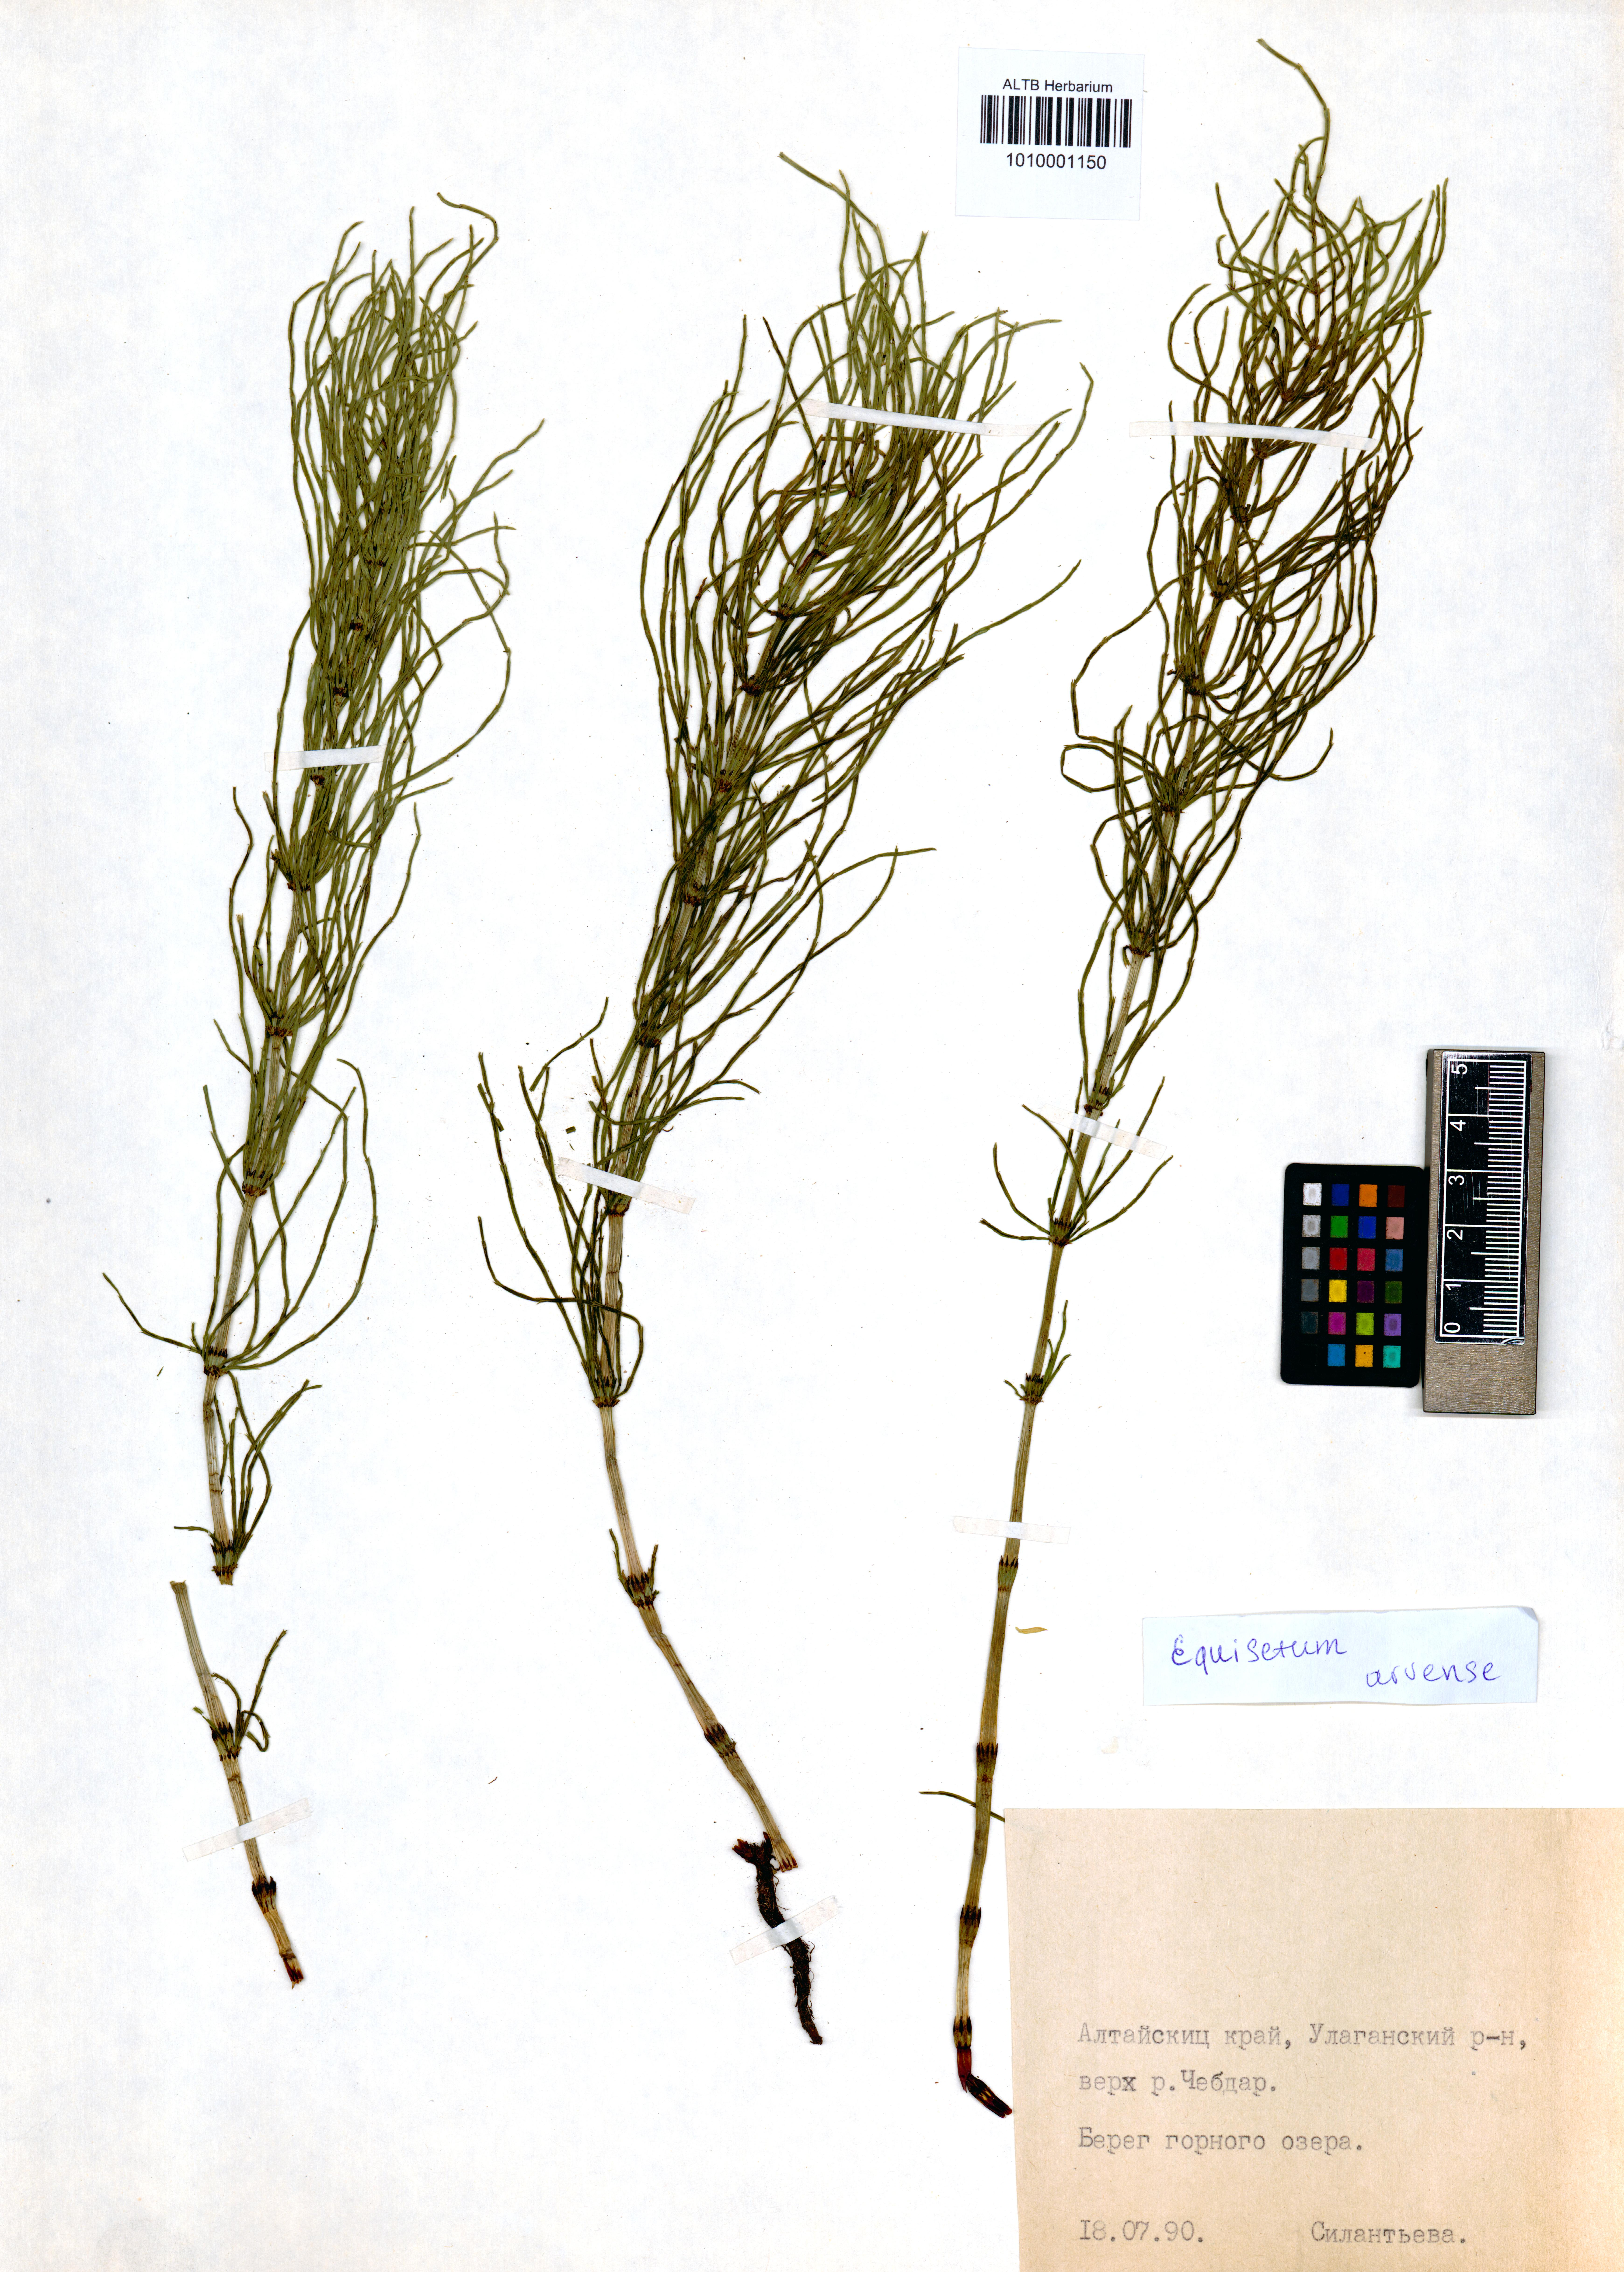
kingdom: Plantae
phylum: Tracheophyta
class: Polypodiopsida
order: Equisetales
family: Equisetaceae
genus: Equisetum
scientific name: Equisetum arvense
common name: Field horsetail
